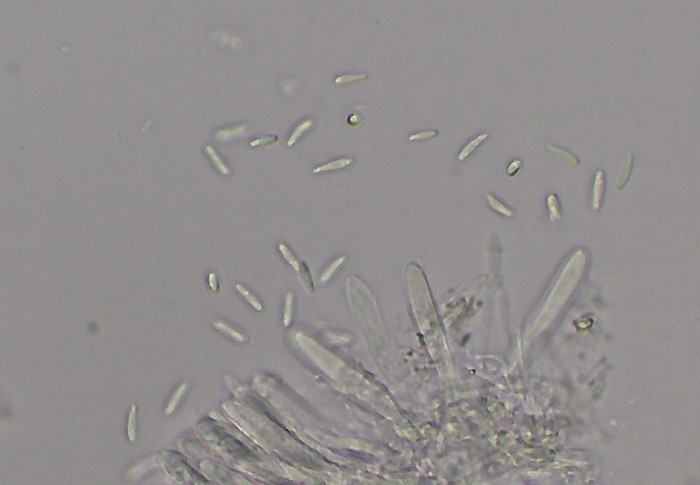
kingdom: Fungi
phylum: Ascomycota
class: Leotiomycetes
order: Helotiales
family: Pezizellaceae
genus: Psilachnum
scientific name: Psilachnum chrysostigmum
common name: gulnende hårskive
